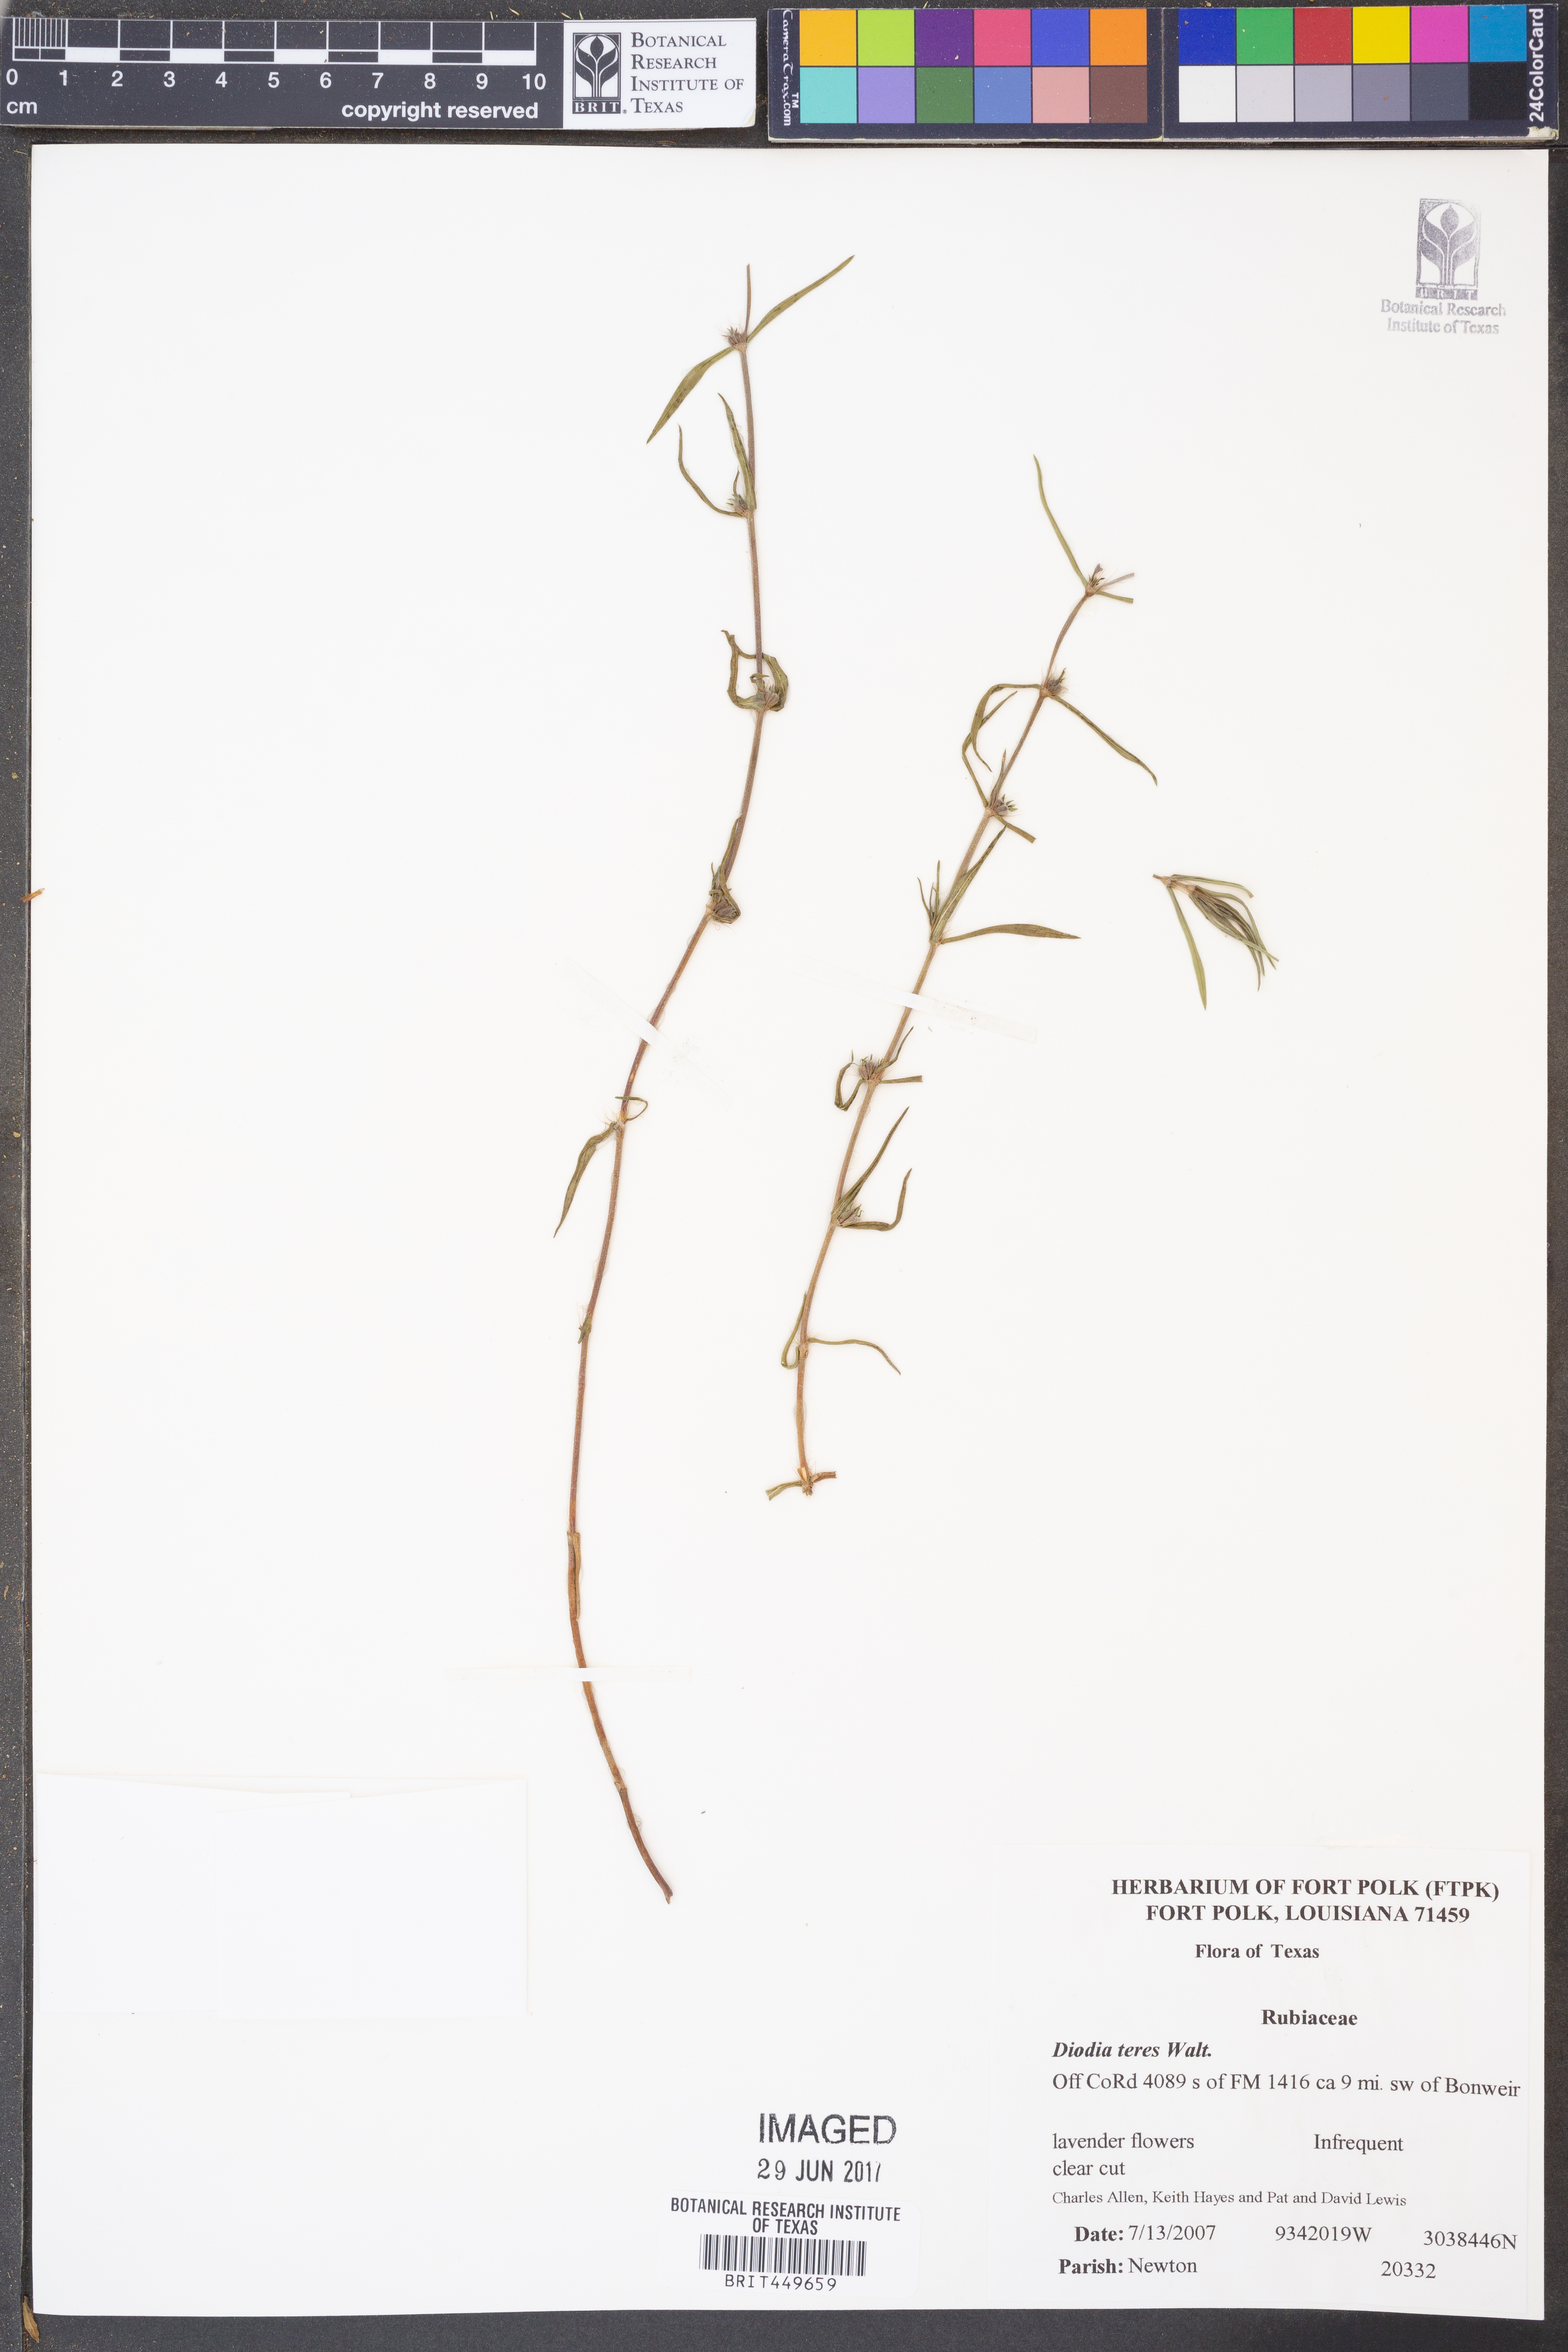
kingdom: Plantae
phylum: Tracheophyta
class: Magnoliopsida
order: Gentianales
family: Rubiaceae
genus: Hexasepalum
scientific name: Hexasepalum teres
